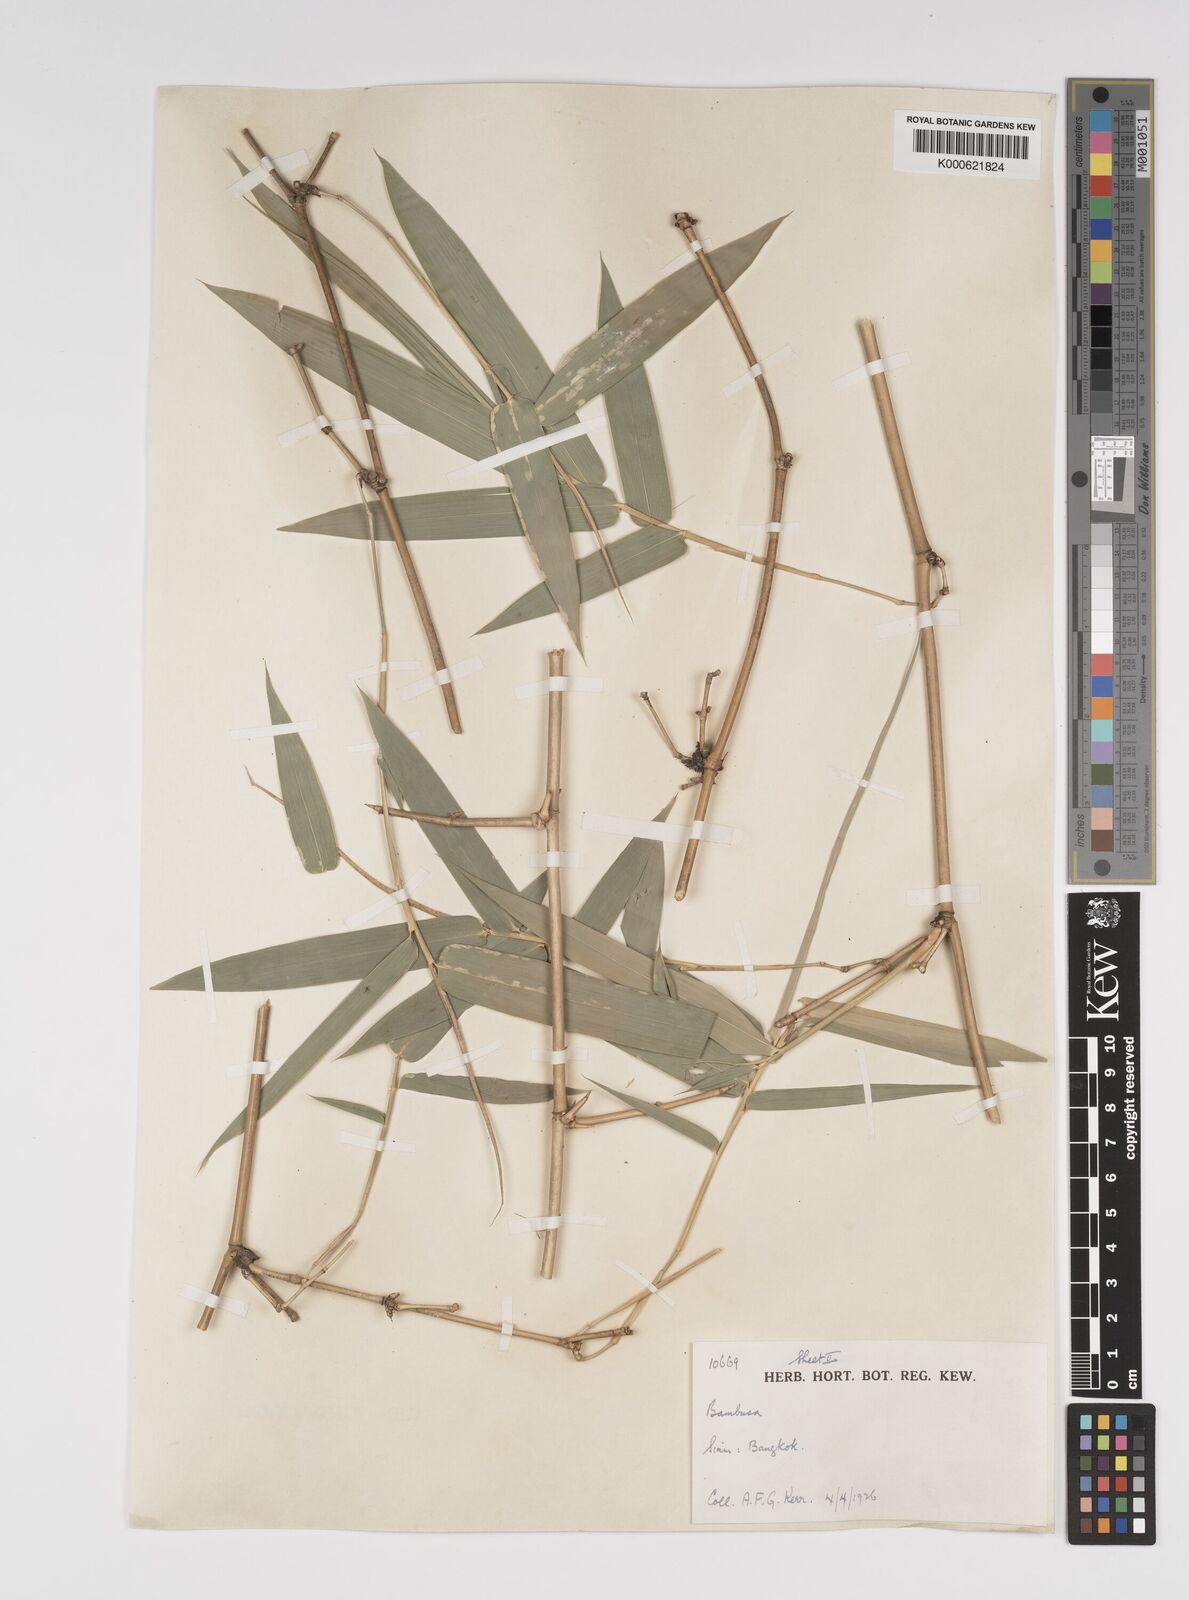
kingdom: Plantae
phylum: Tracheophyta
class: Liliopsida
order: Poales
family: Poaceae
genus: Bambusa
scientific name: Bambusa spinosa
